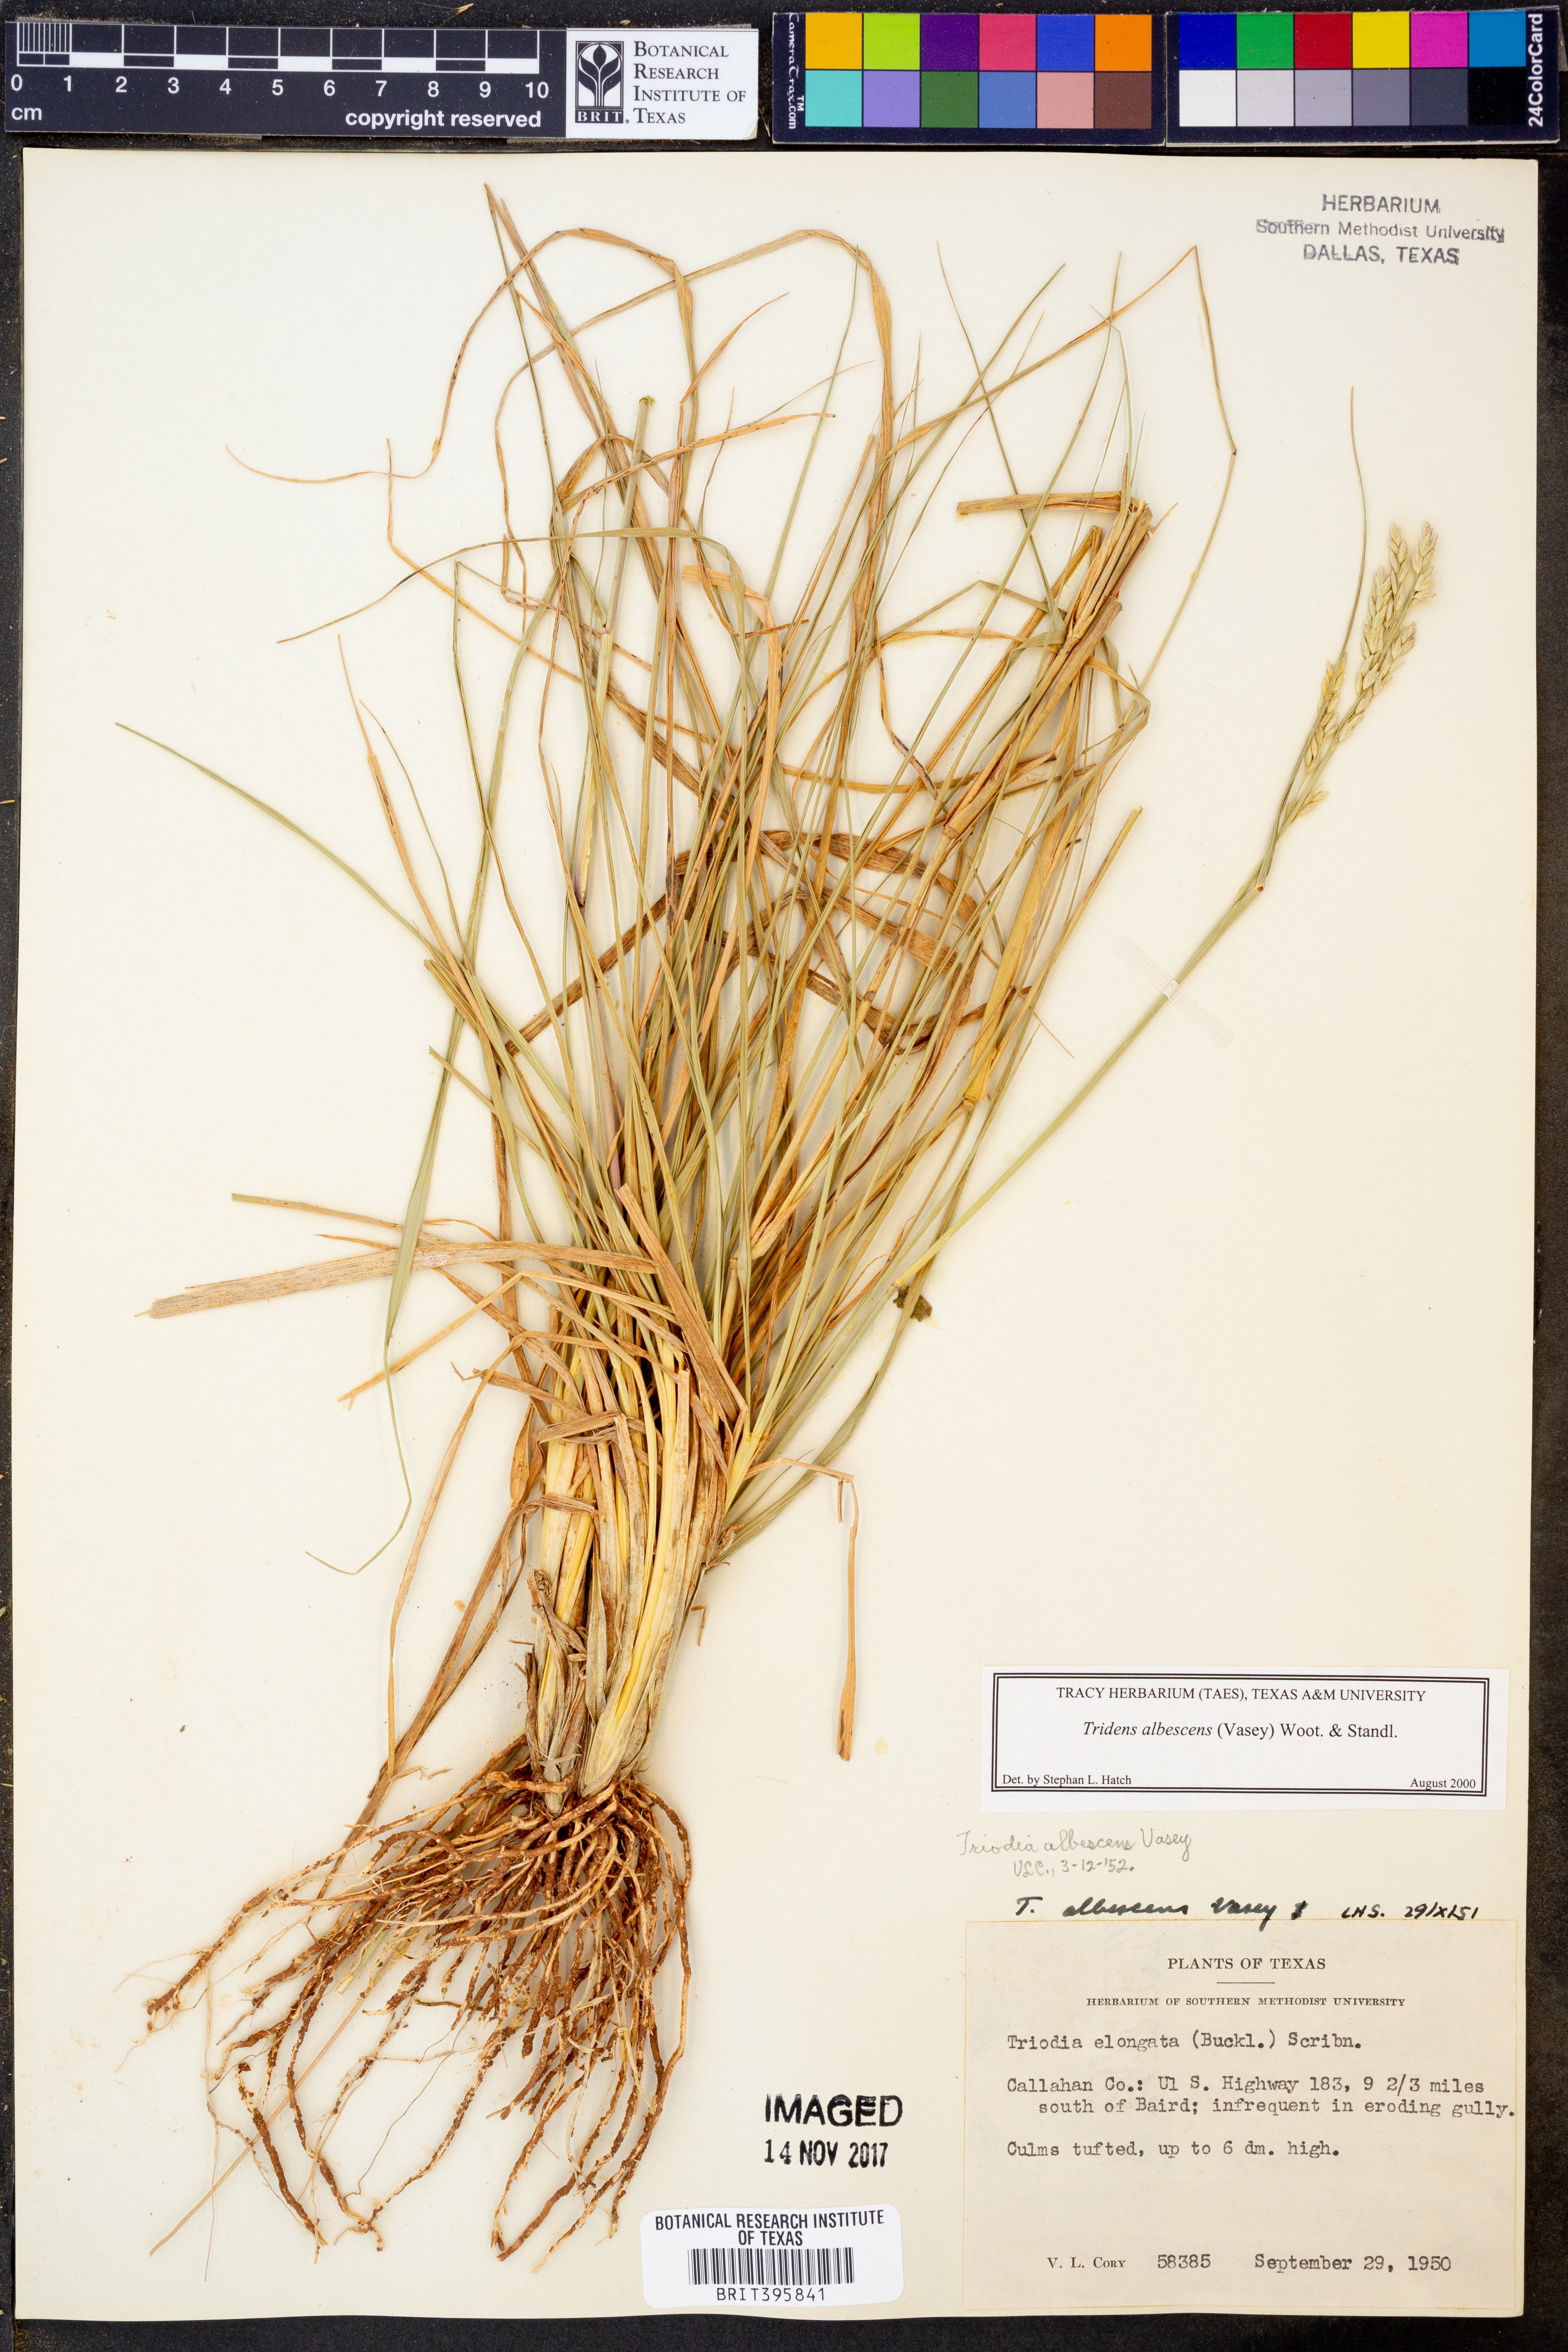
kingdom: Plantae
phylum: Tracheophyta
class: Liliopsida
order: Poales
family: Poaceae
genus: Tridens
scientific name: Tridens albescens
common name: White tridens
